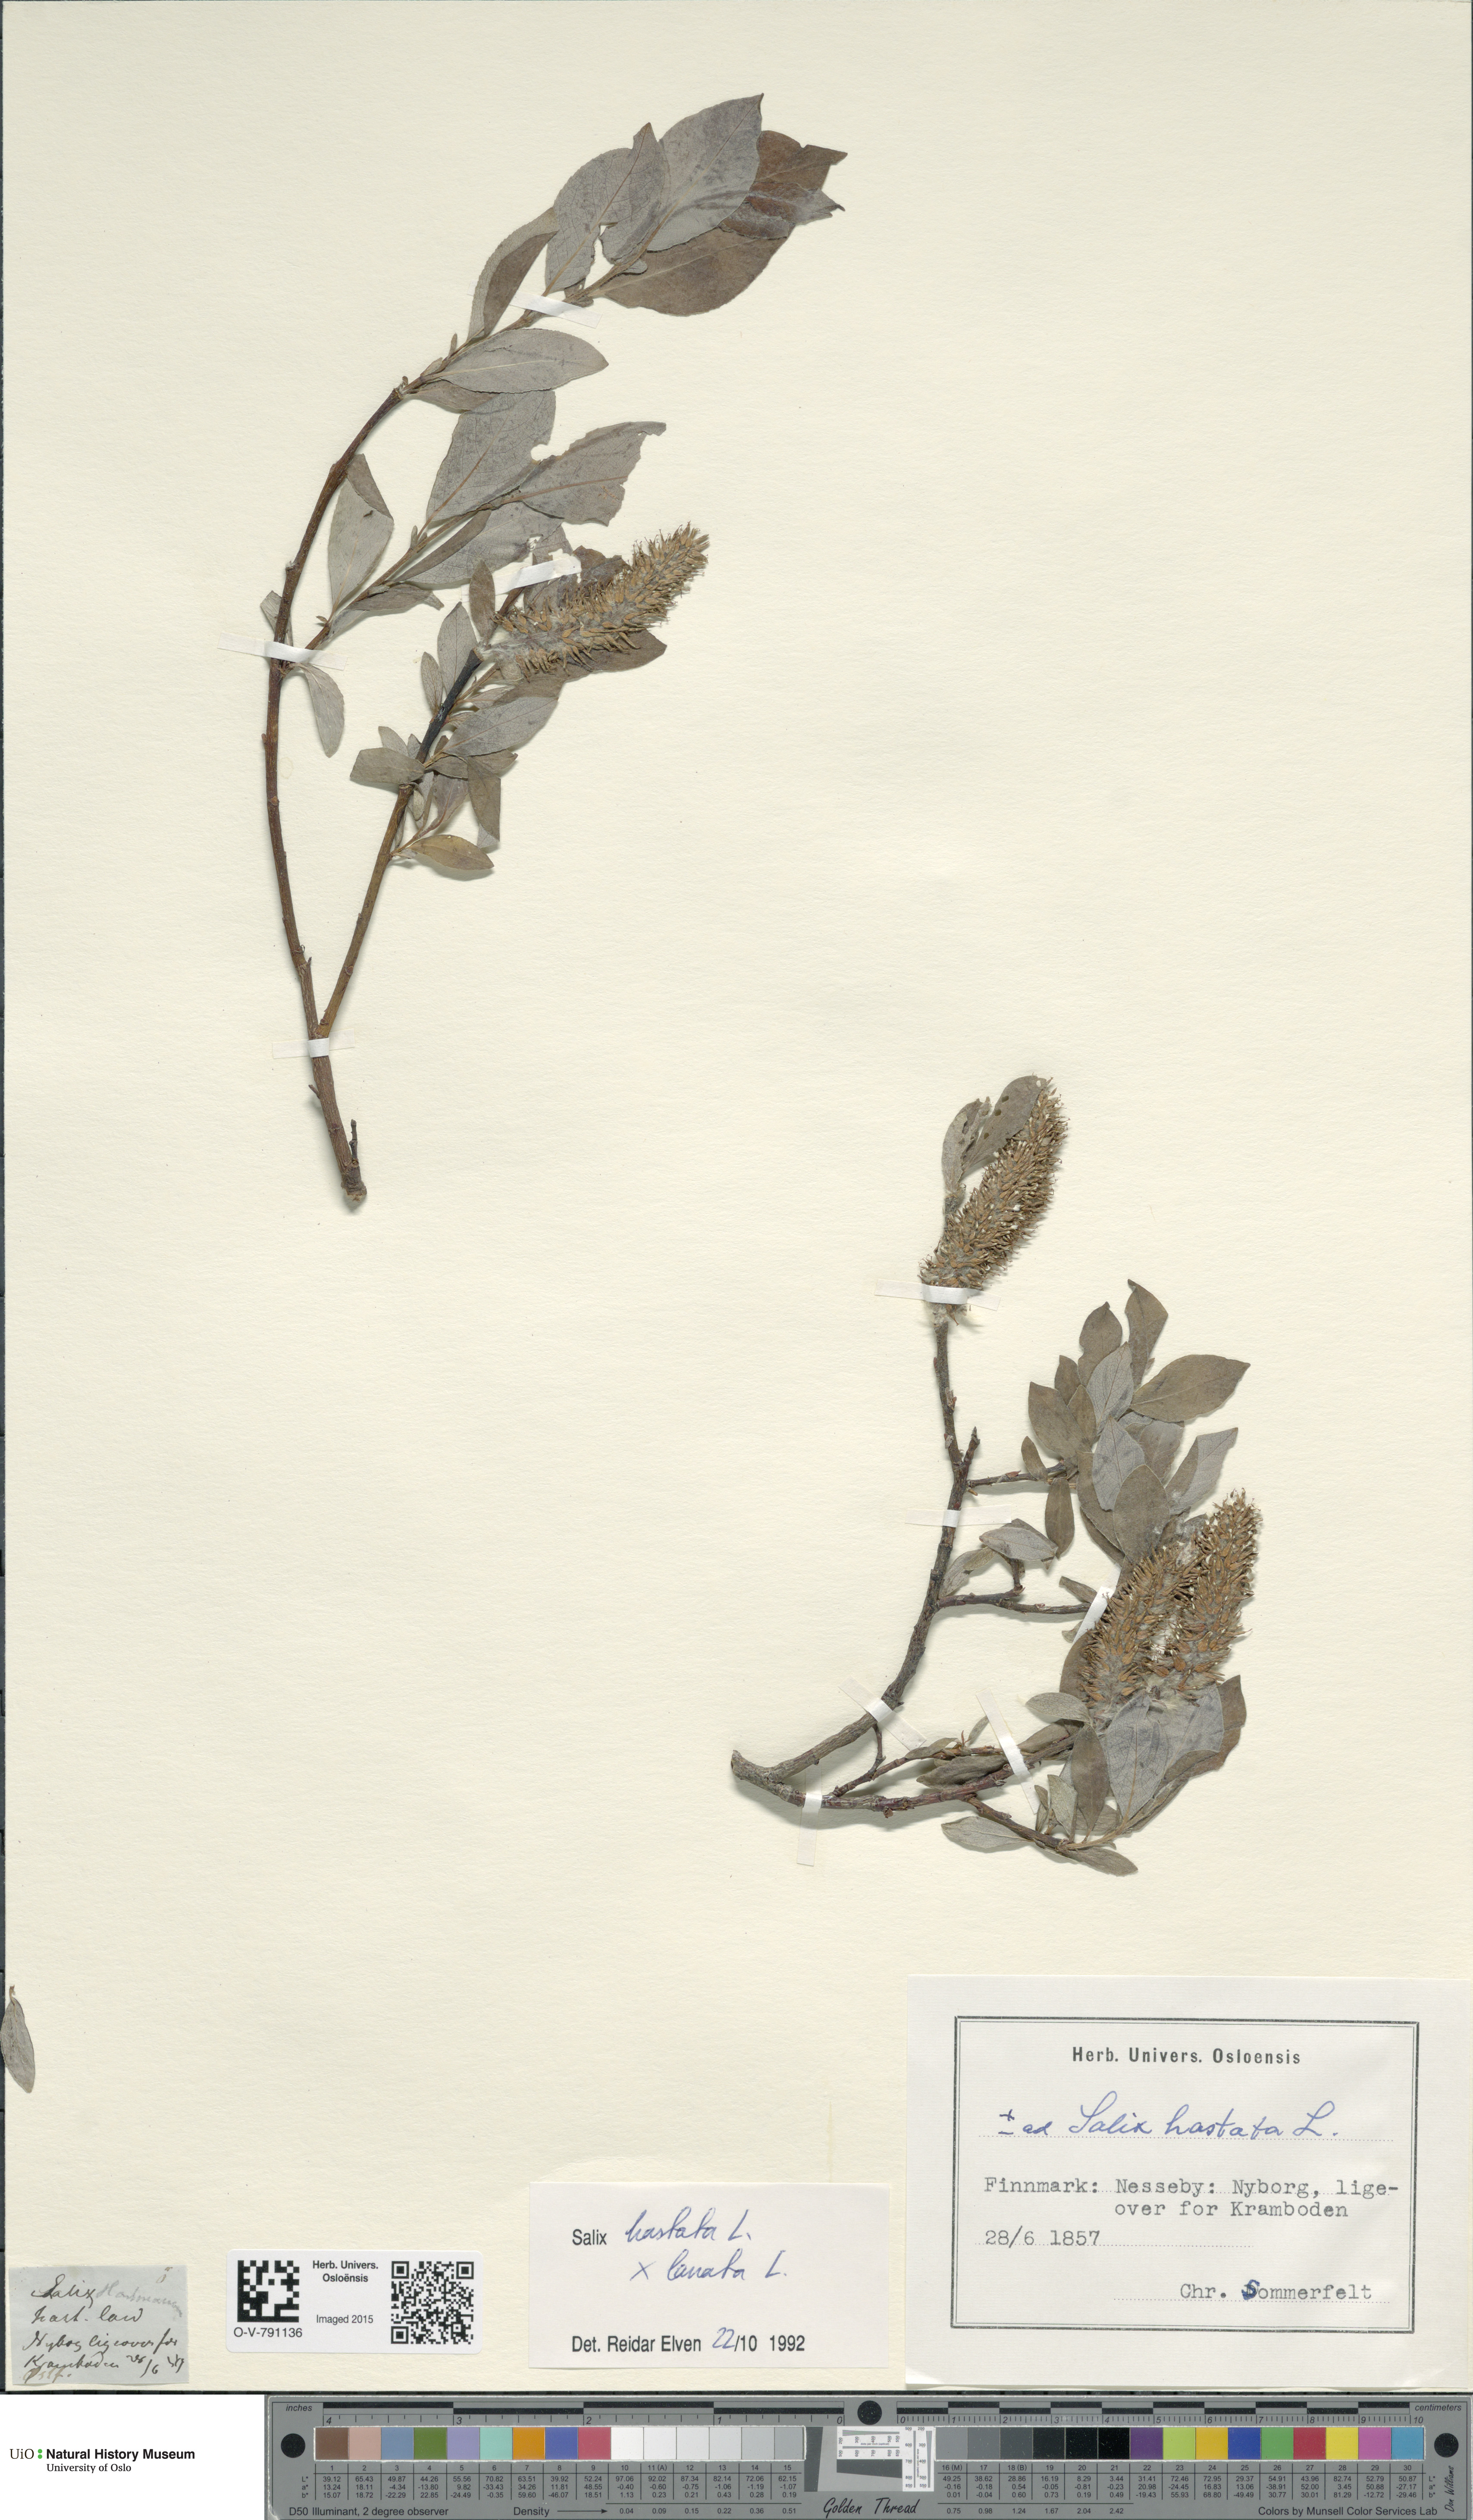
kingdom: Plantae
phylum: Tracheophyta
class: Magnoliopsida
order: Malpighiales
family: Salicaceae
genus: Salix
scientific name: Salix
